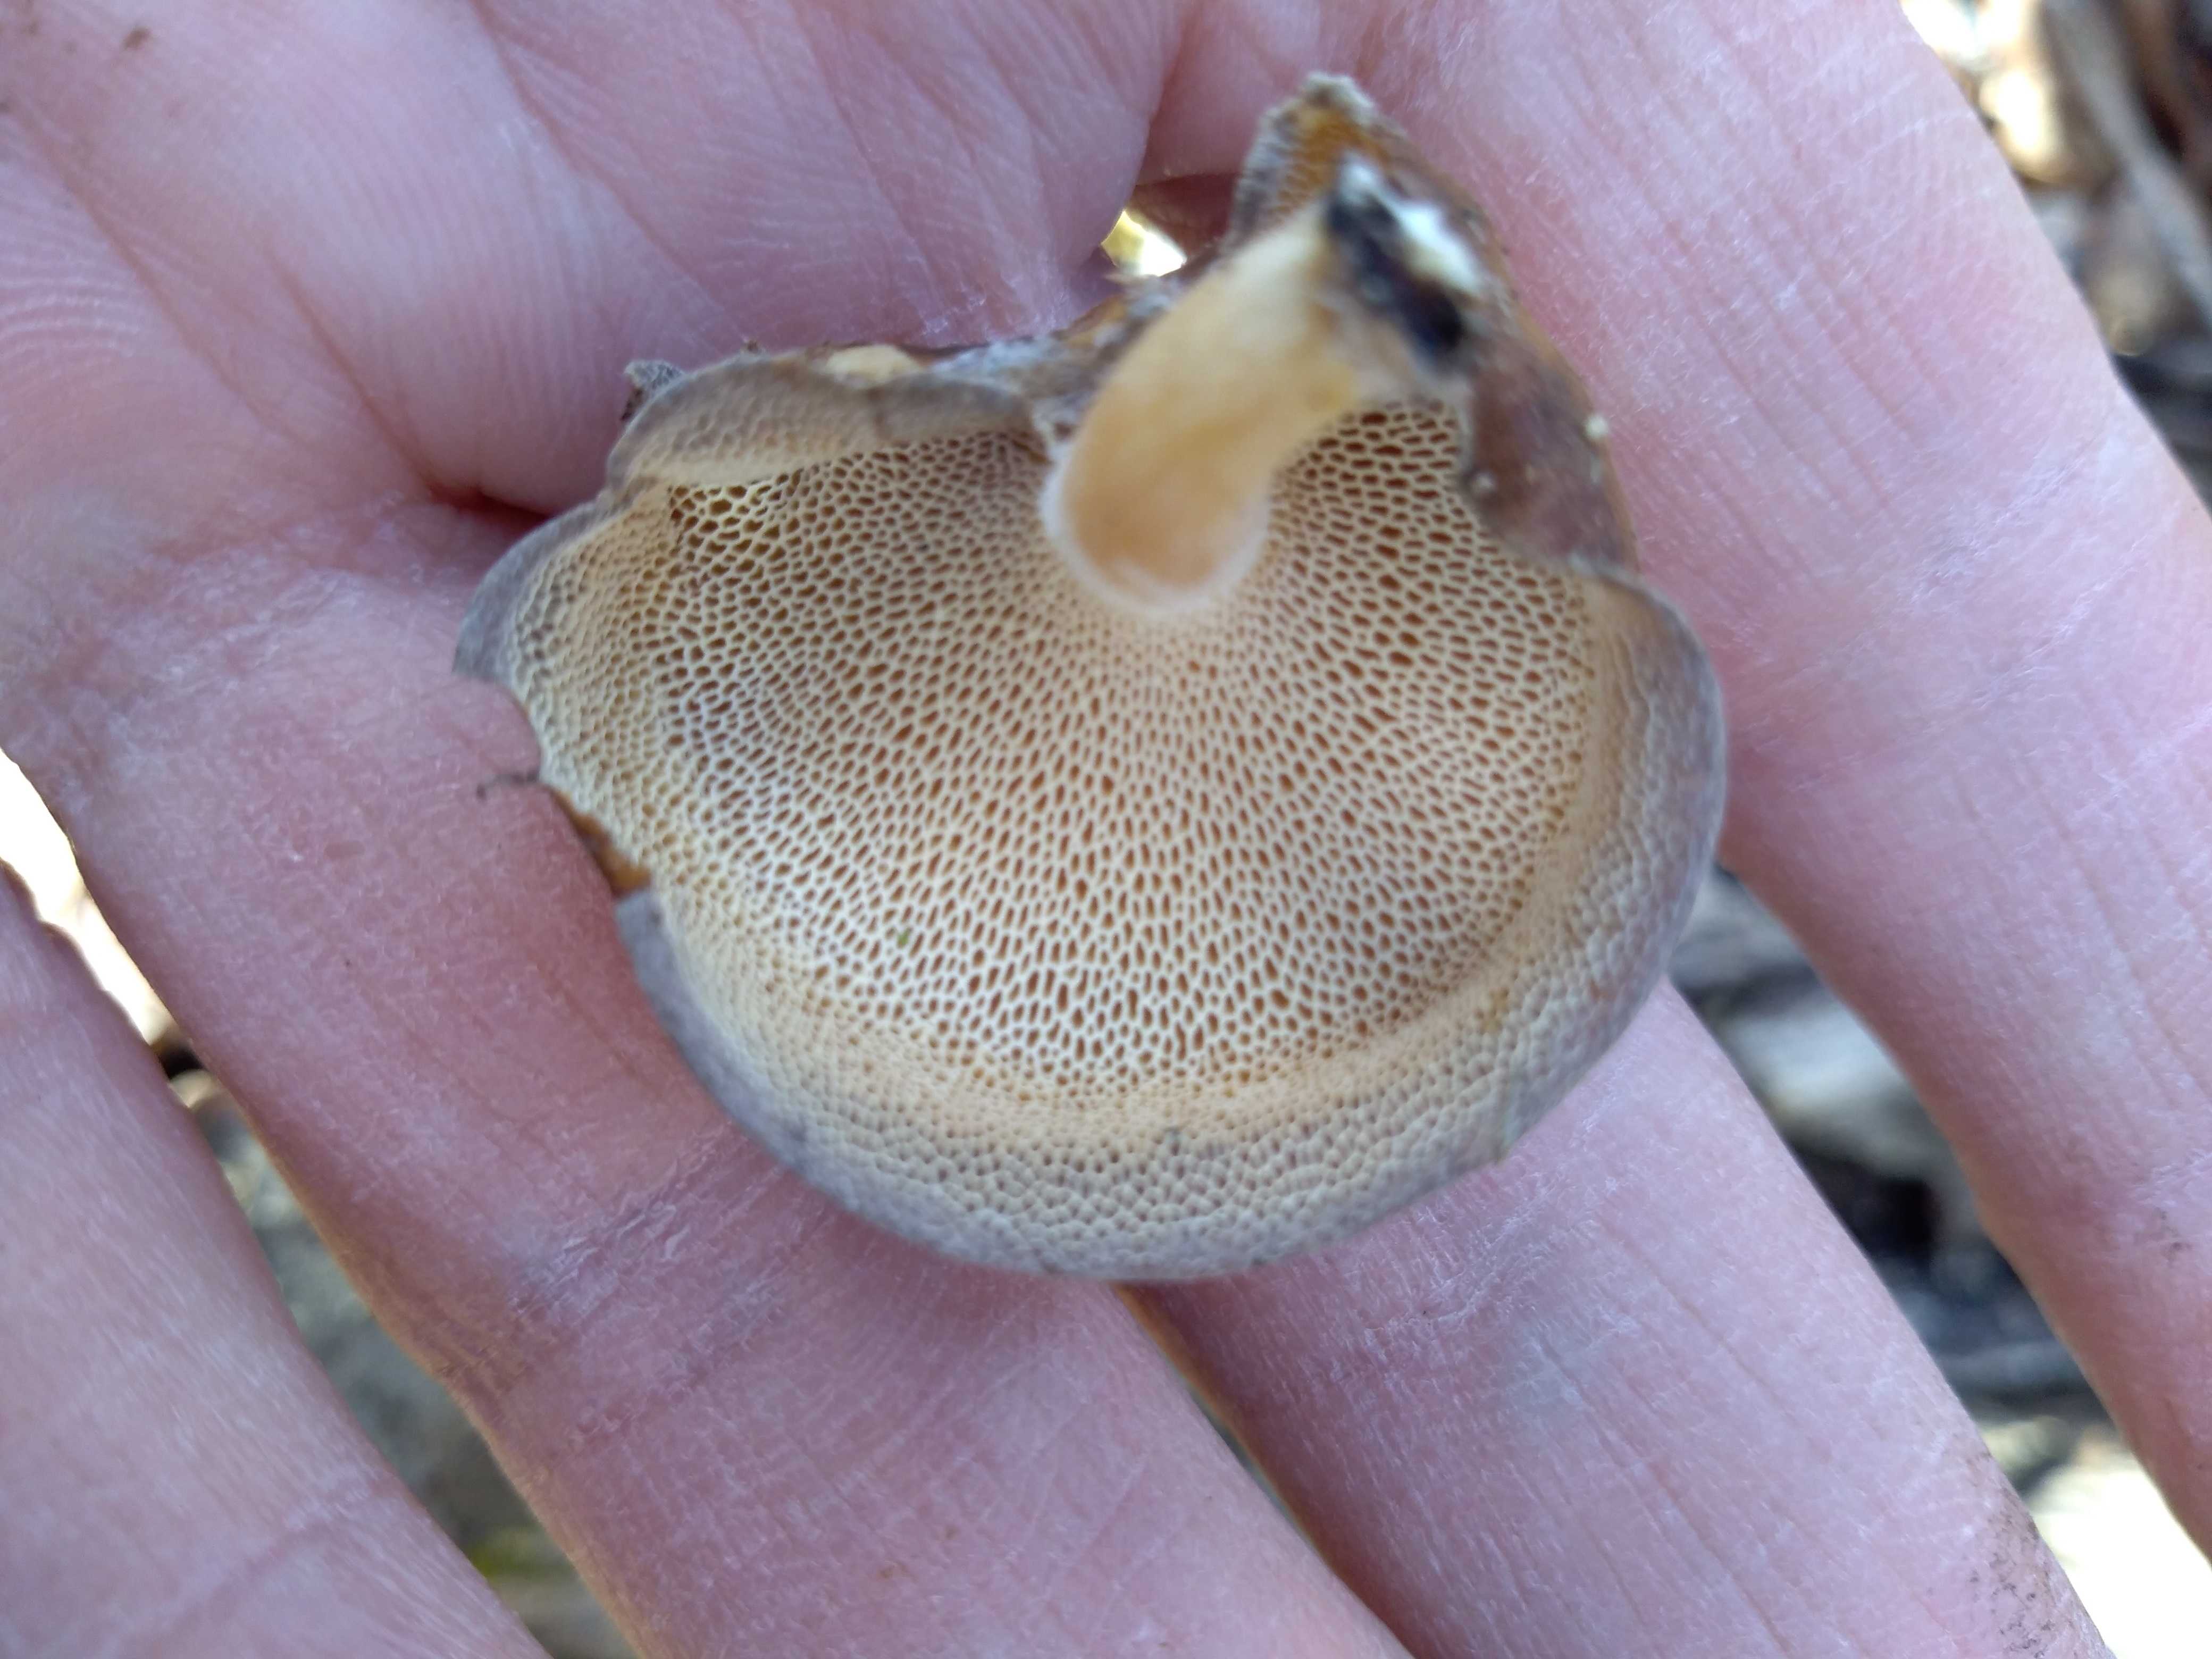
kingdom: Fungi
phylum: Basidiomycota
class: Agaricomycetes
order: Polyporales
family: Polyporaceae
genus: Lentinus
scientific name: Lentinus brumalis
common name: vinter-stilkporesvamp
